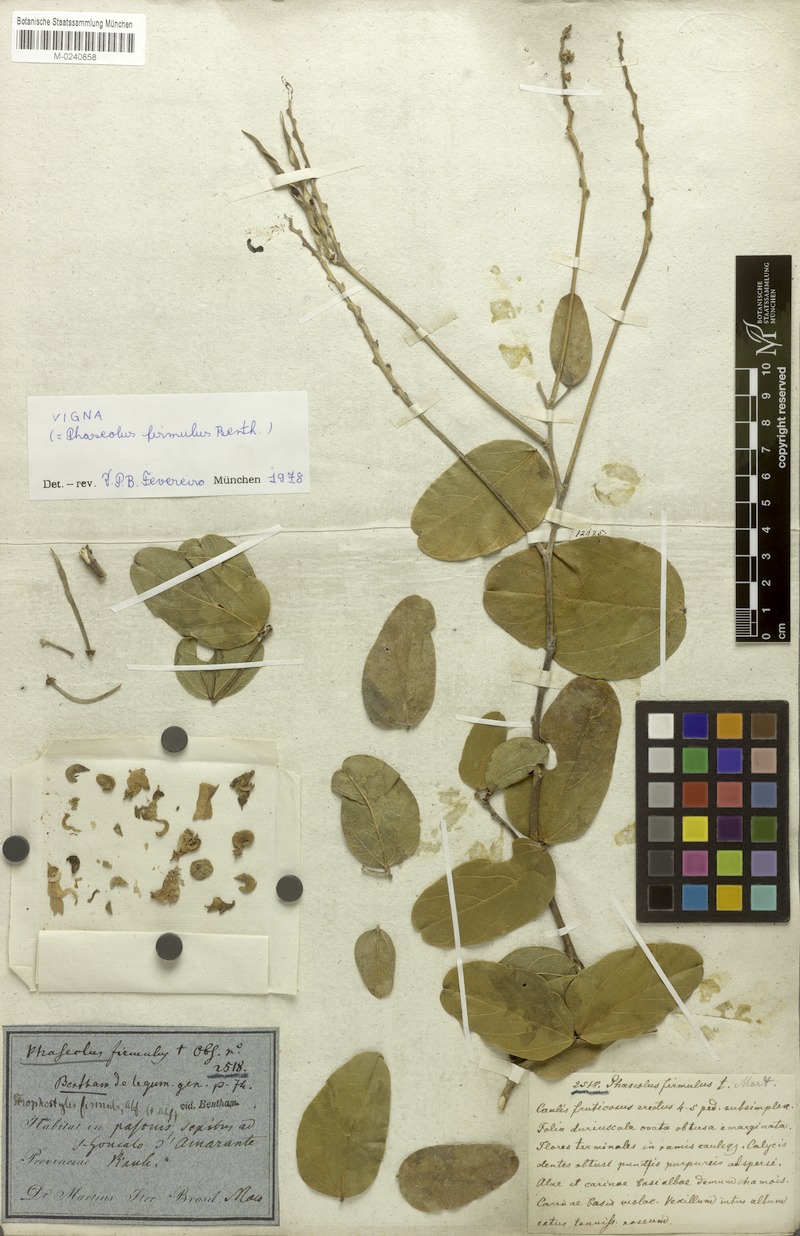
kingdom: Plantae
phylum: Tracheophyta
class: Magnoliopsida
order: Fabales
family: Fabaceae
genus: Ancistrotropis
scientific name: Ancistrotropis firmula
